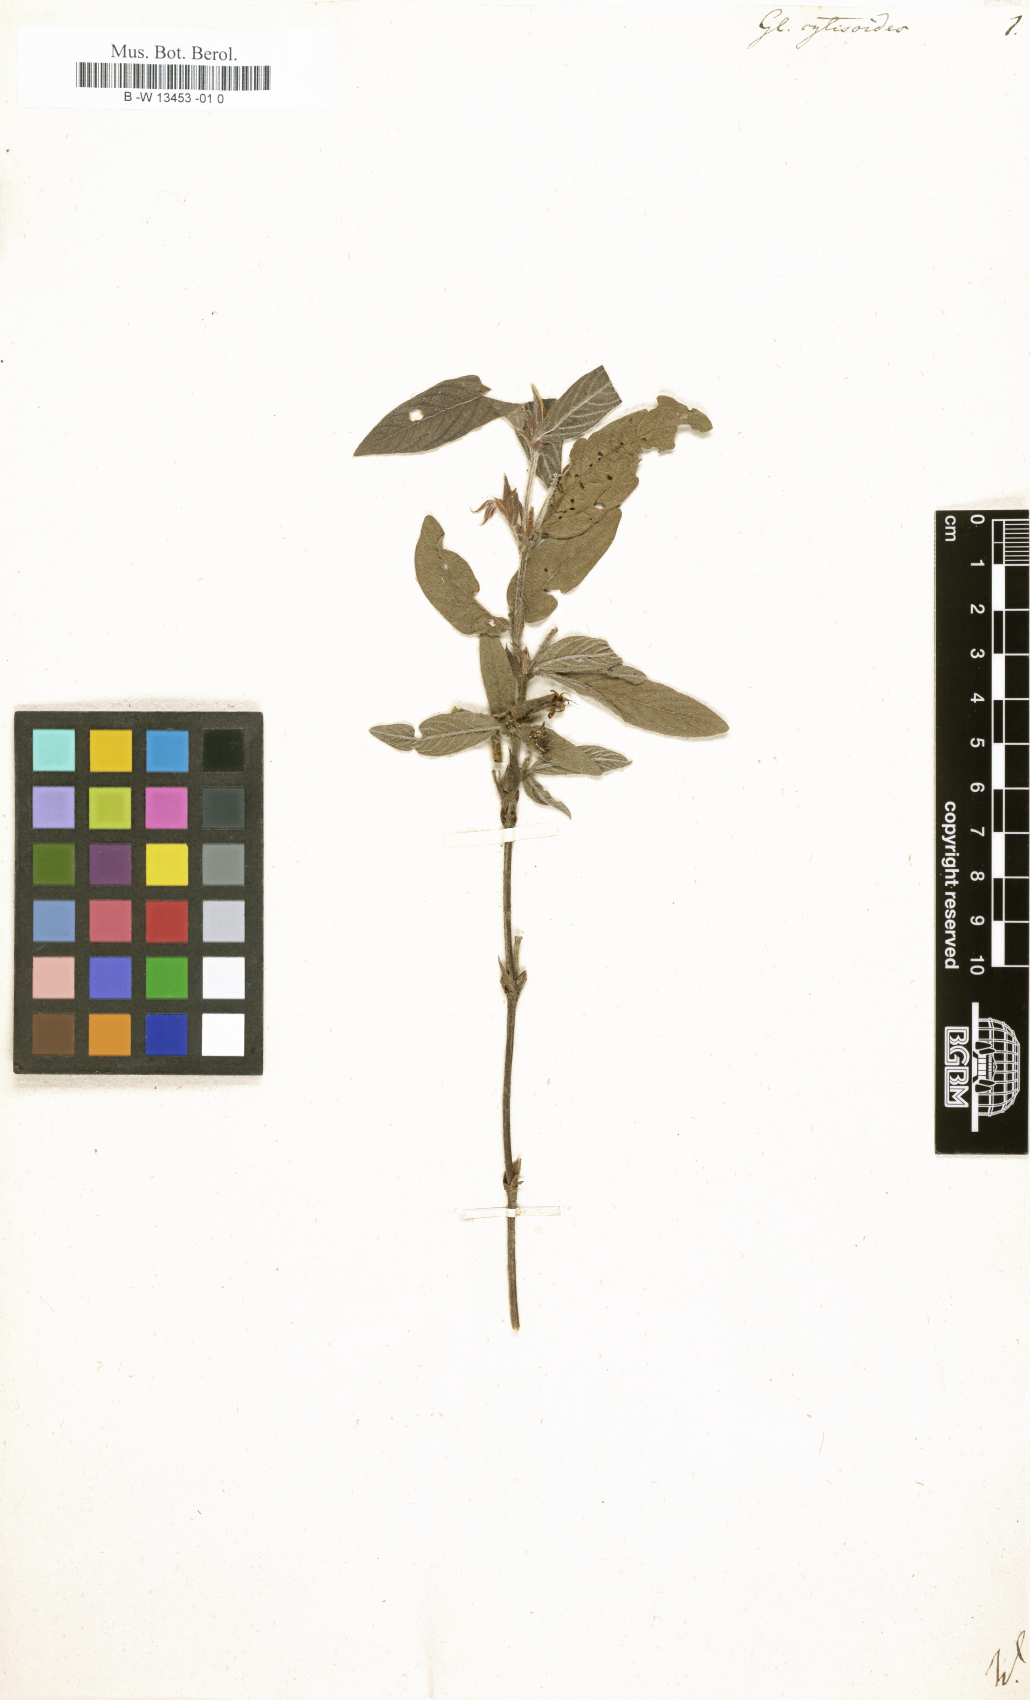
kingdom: Plantae
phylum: Tracheophyta
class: Magnoliopsida
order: Fabales
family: Fabaceae
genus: Glycine
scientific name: Glycine
